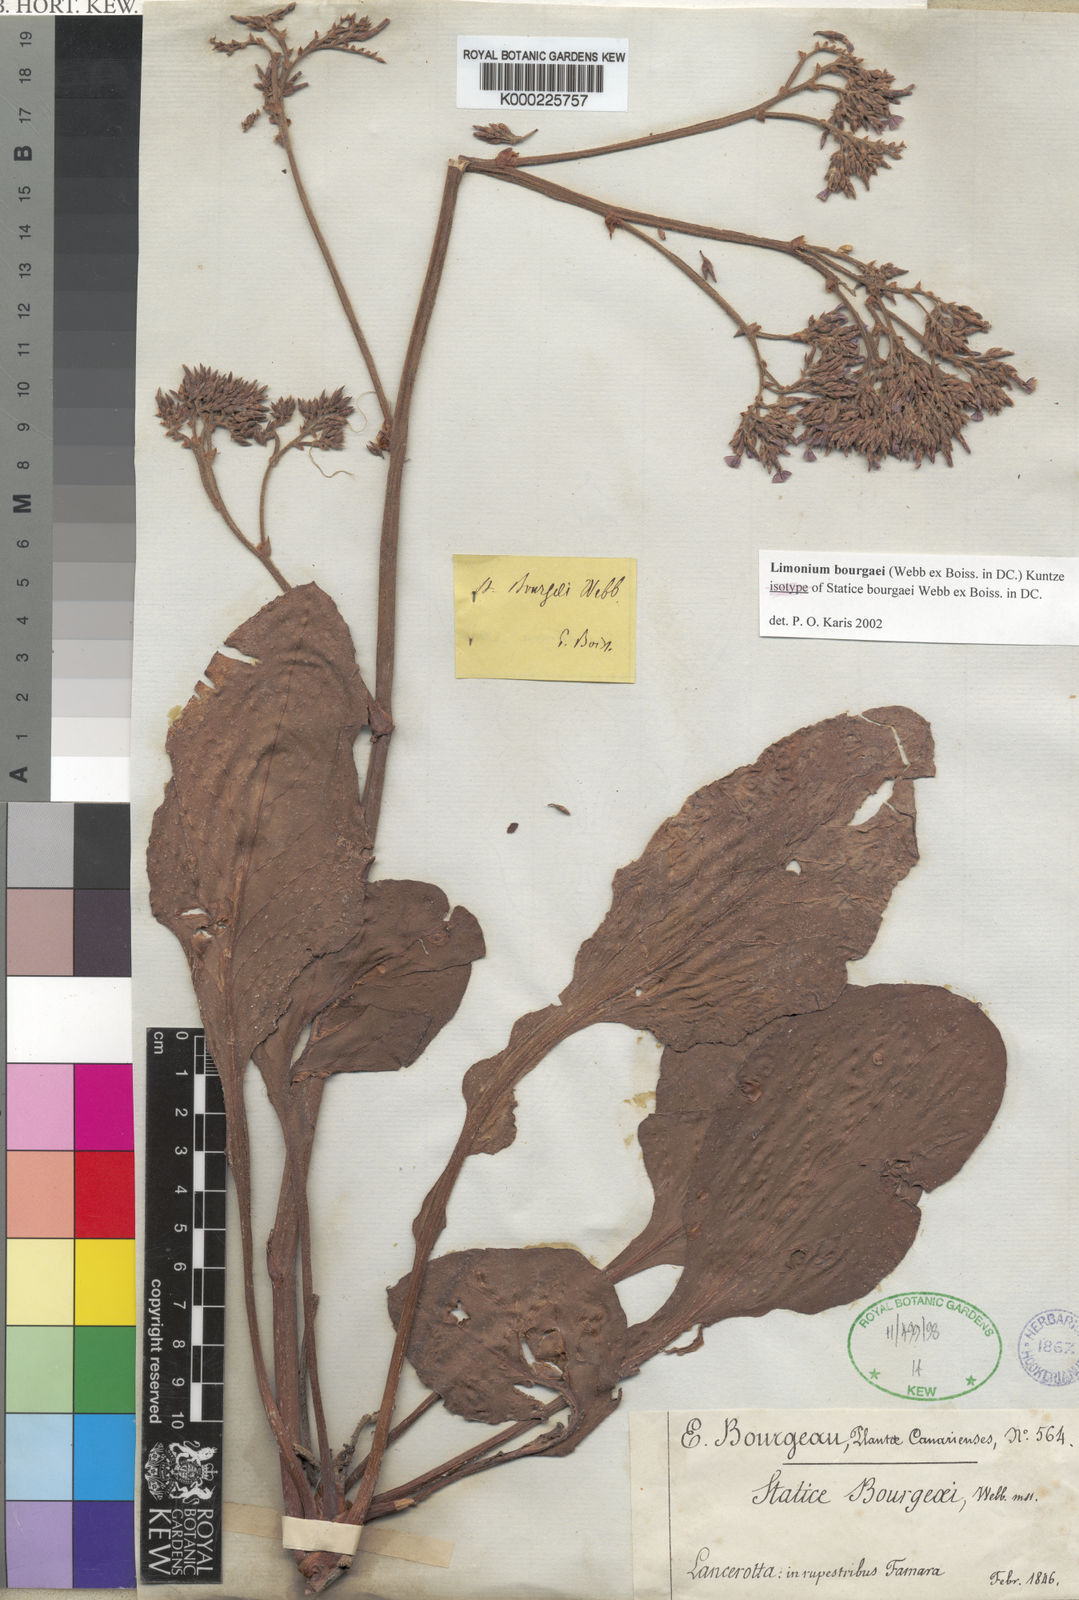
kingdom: Plantae
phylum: Tracheophyta
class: Magnoliopsida
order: Caryophyllales
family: Plumbaginaceae
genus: Limonium
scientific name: Limonium
